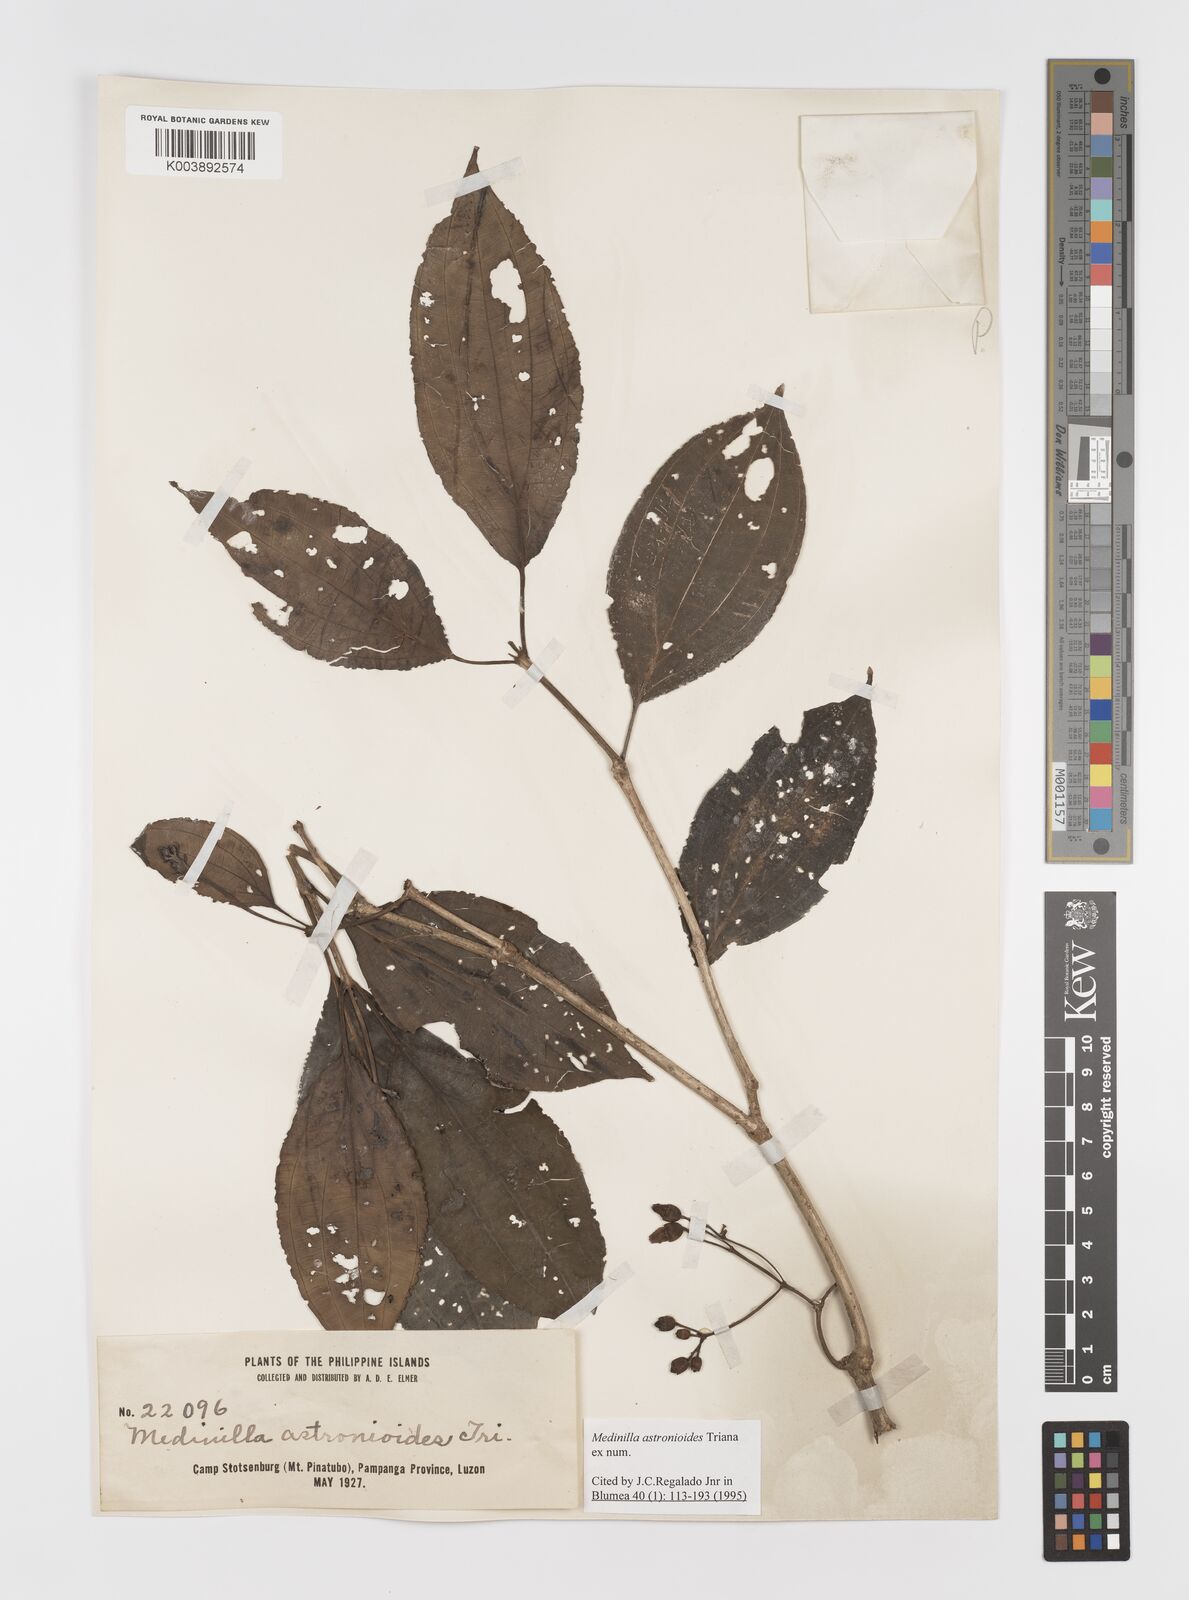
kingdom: Plantae
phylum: Tracheophyta
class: Magnoliopsida
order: Myrtales
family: Melastomataceae
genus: Medinilla
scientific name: Medinilla astronioides
